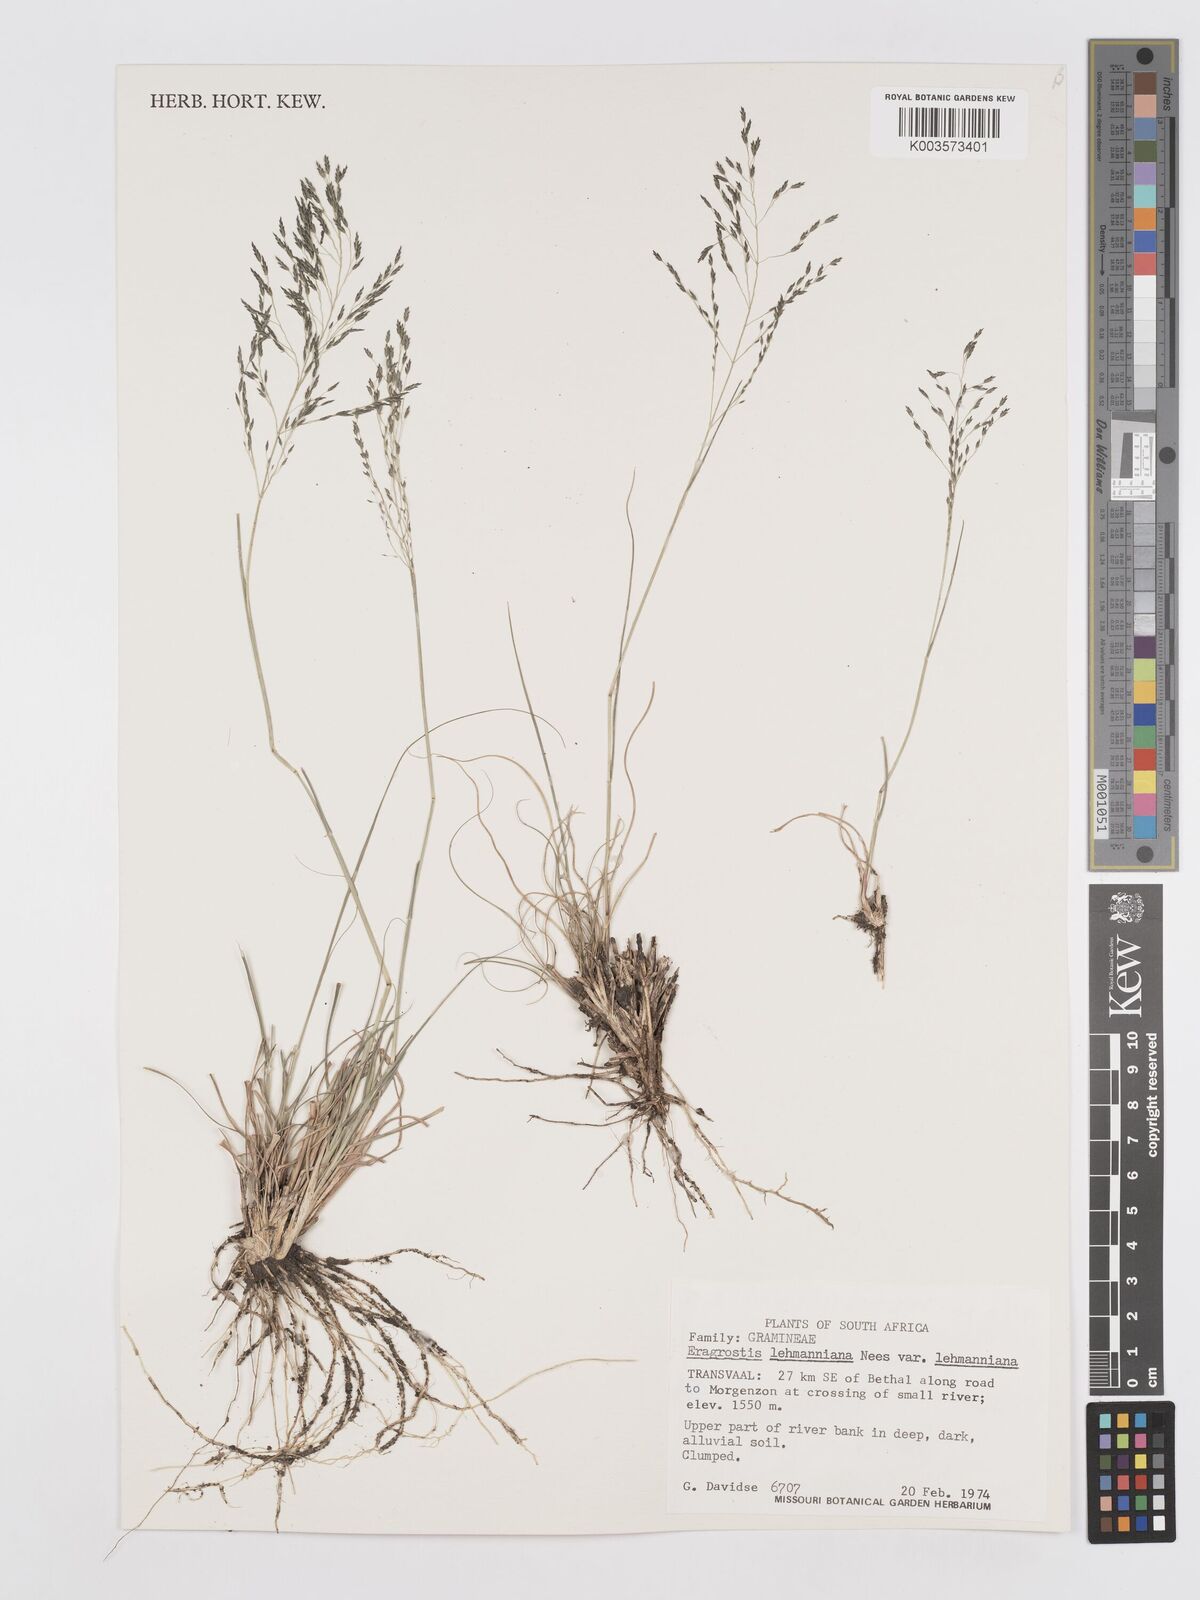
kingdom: Plantae
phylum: Tracheophyta
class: Liliopsida
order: Poales
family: Poaceae
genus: Eragrostis
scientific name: Eragrostis lehmanniana
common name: Lehmann lovegrass
